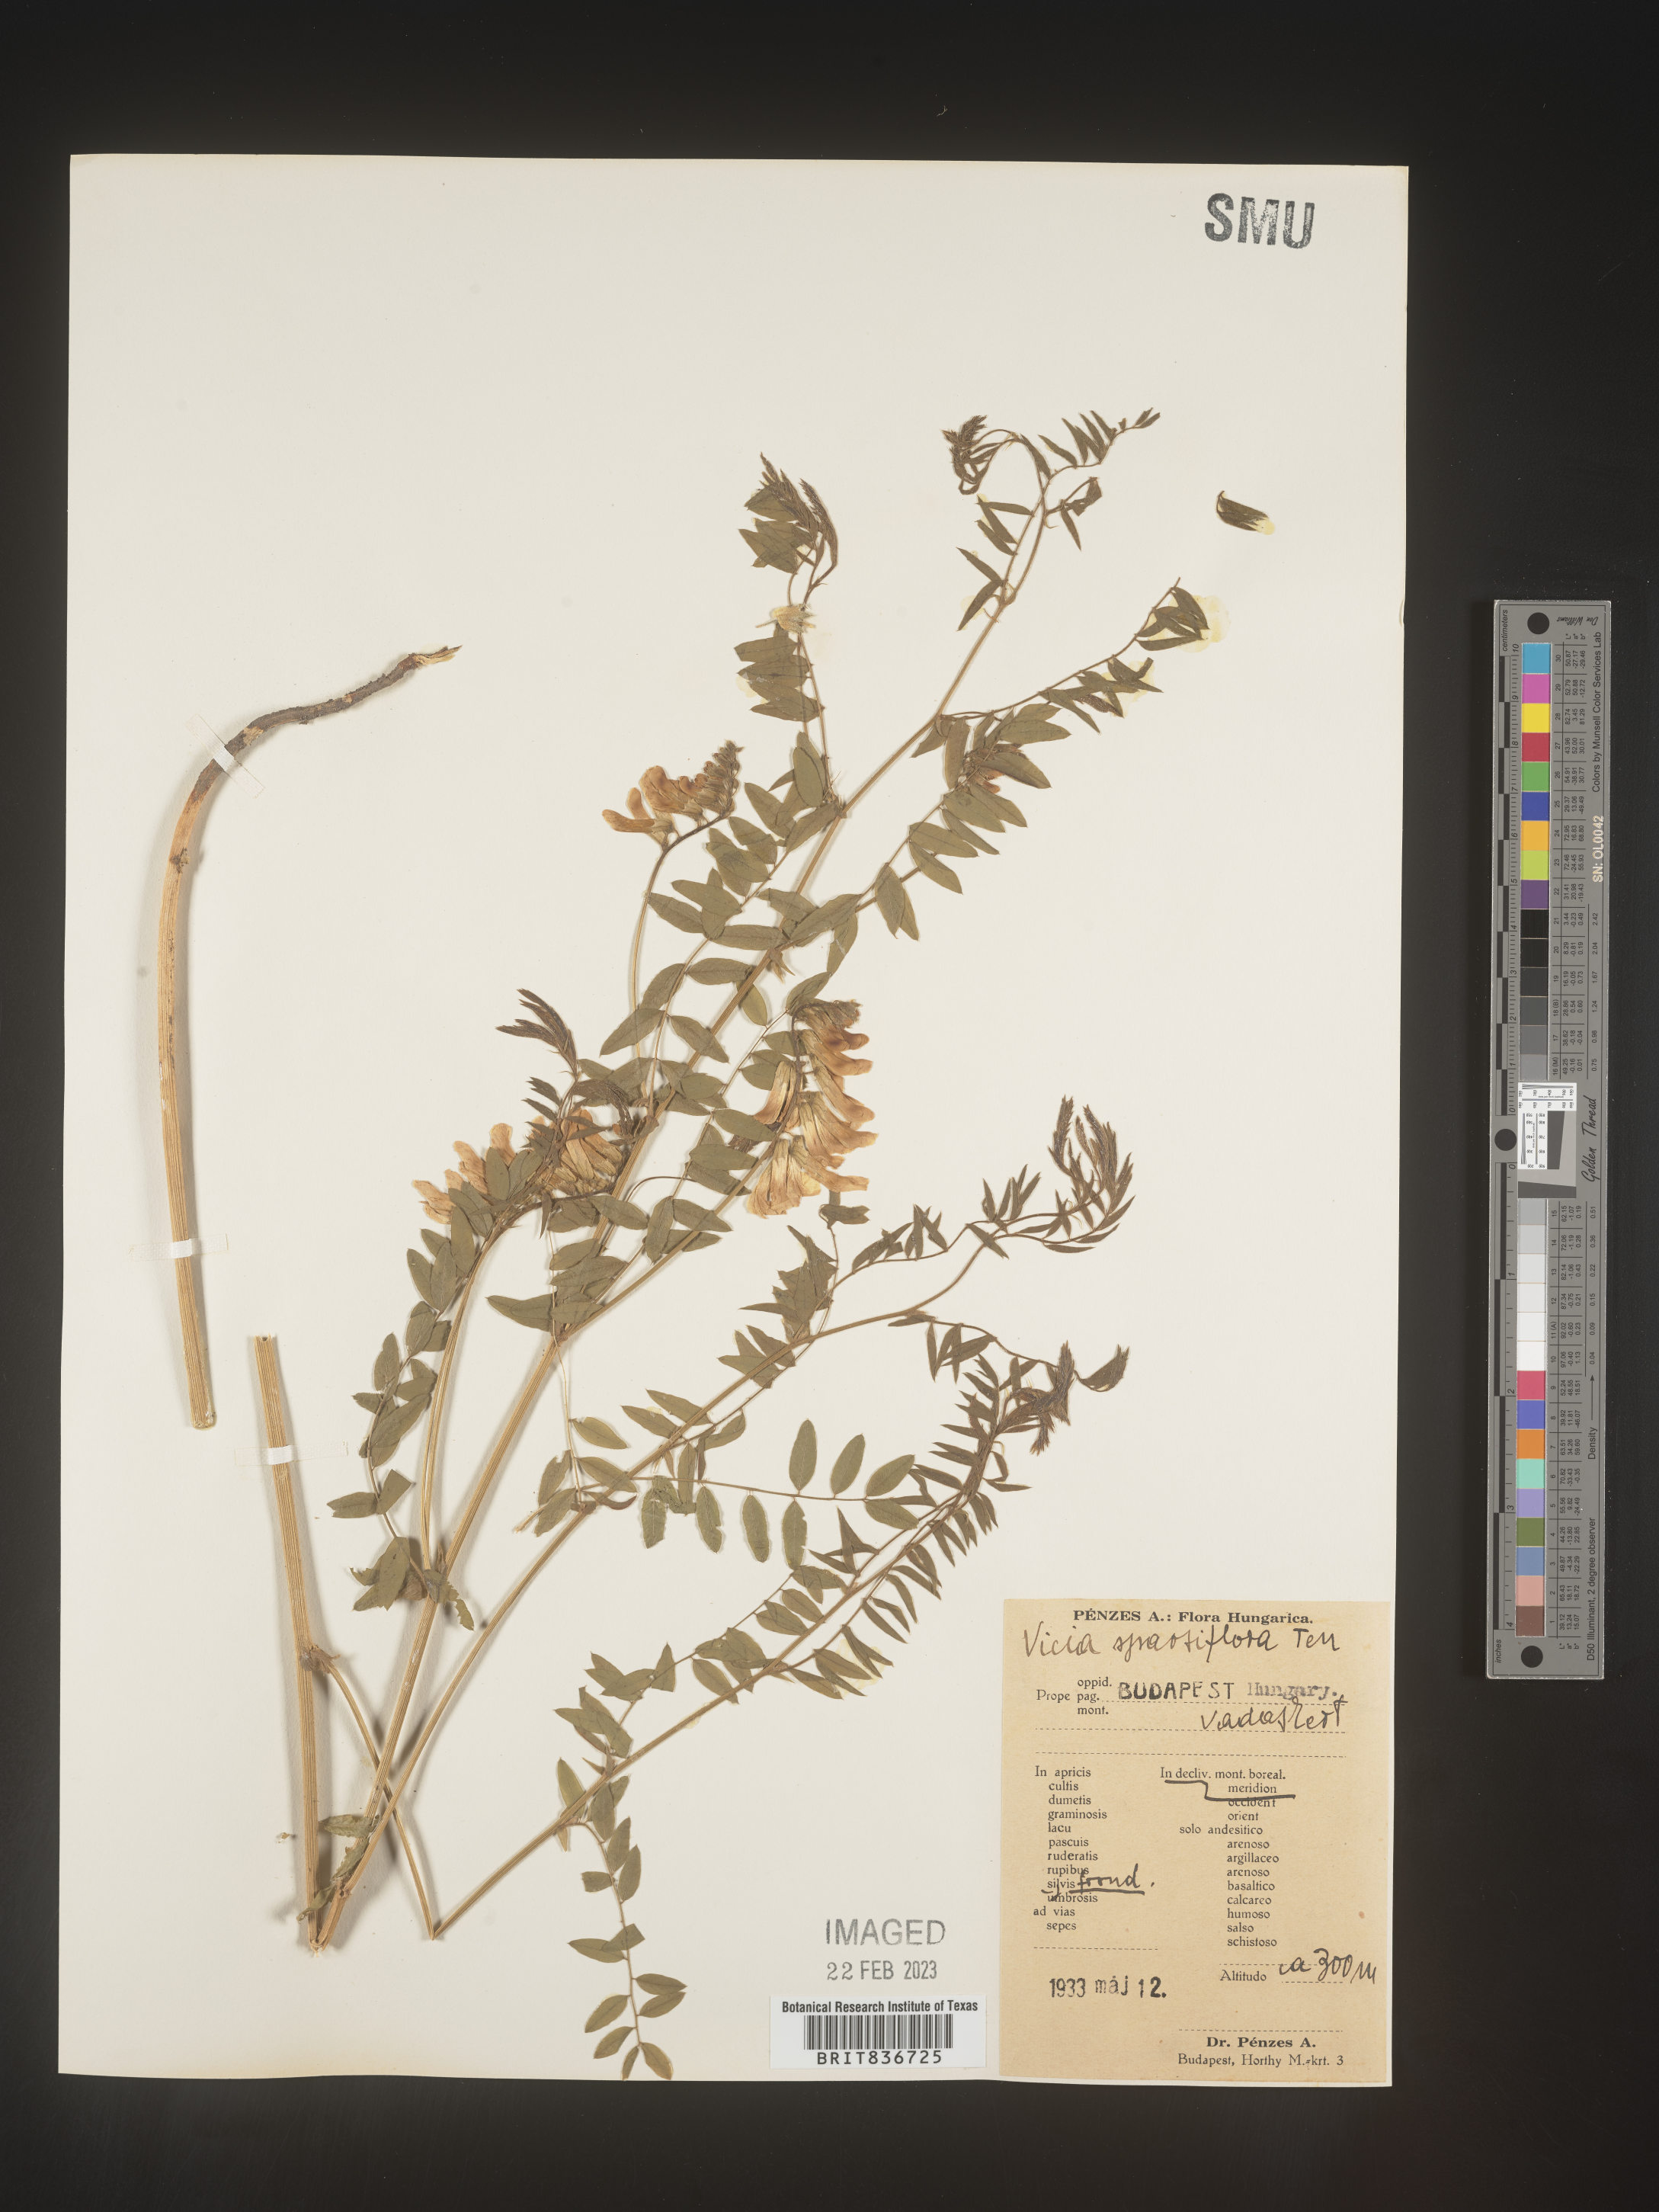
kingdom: Plantae
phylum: Tracheophyta
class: Magnoliopsida
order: Fabales
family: Fabaceae
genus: Vicia
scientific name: Vicia
